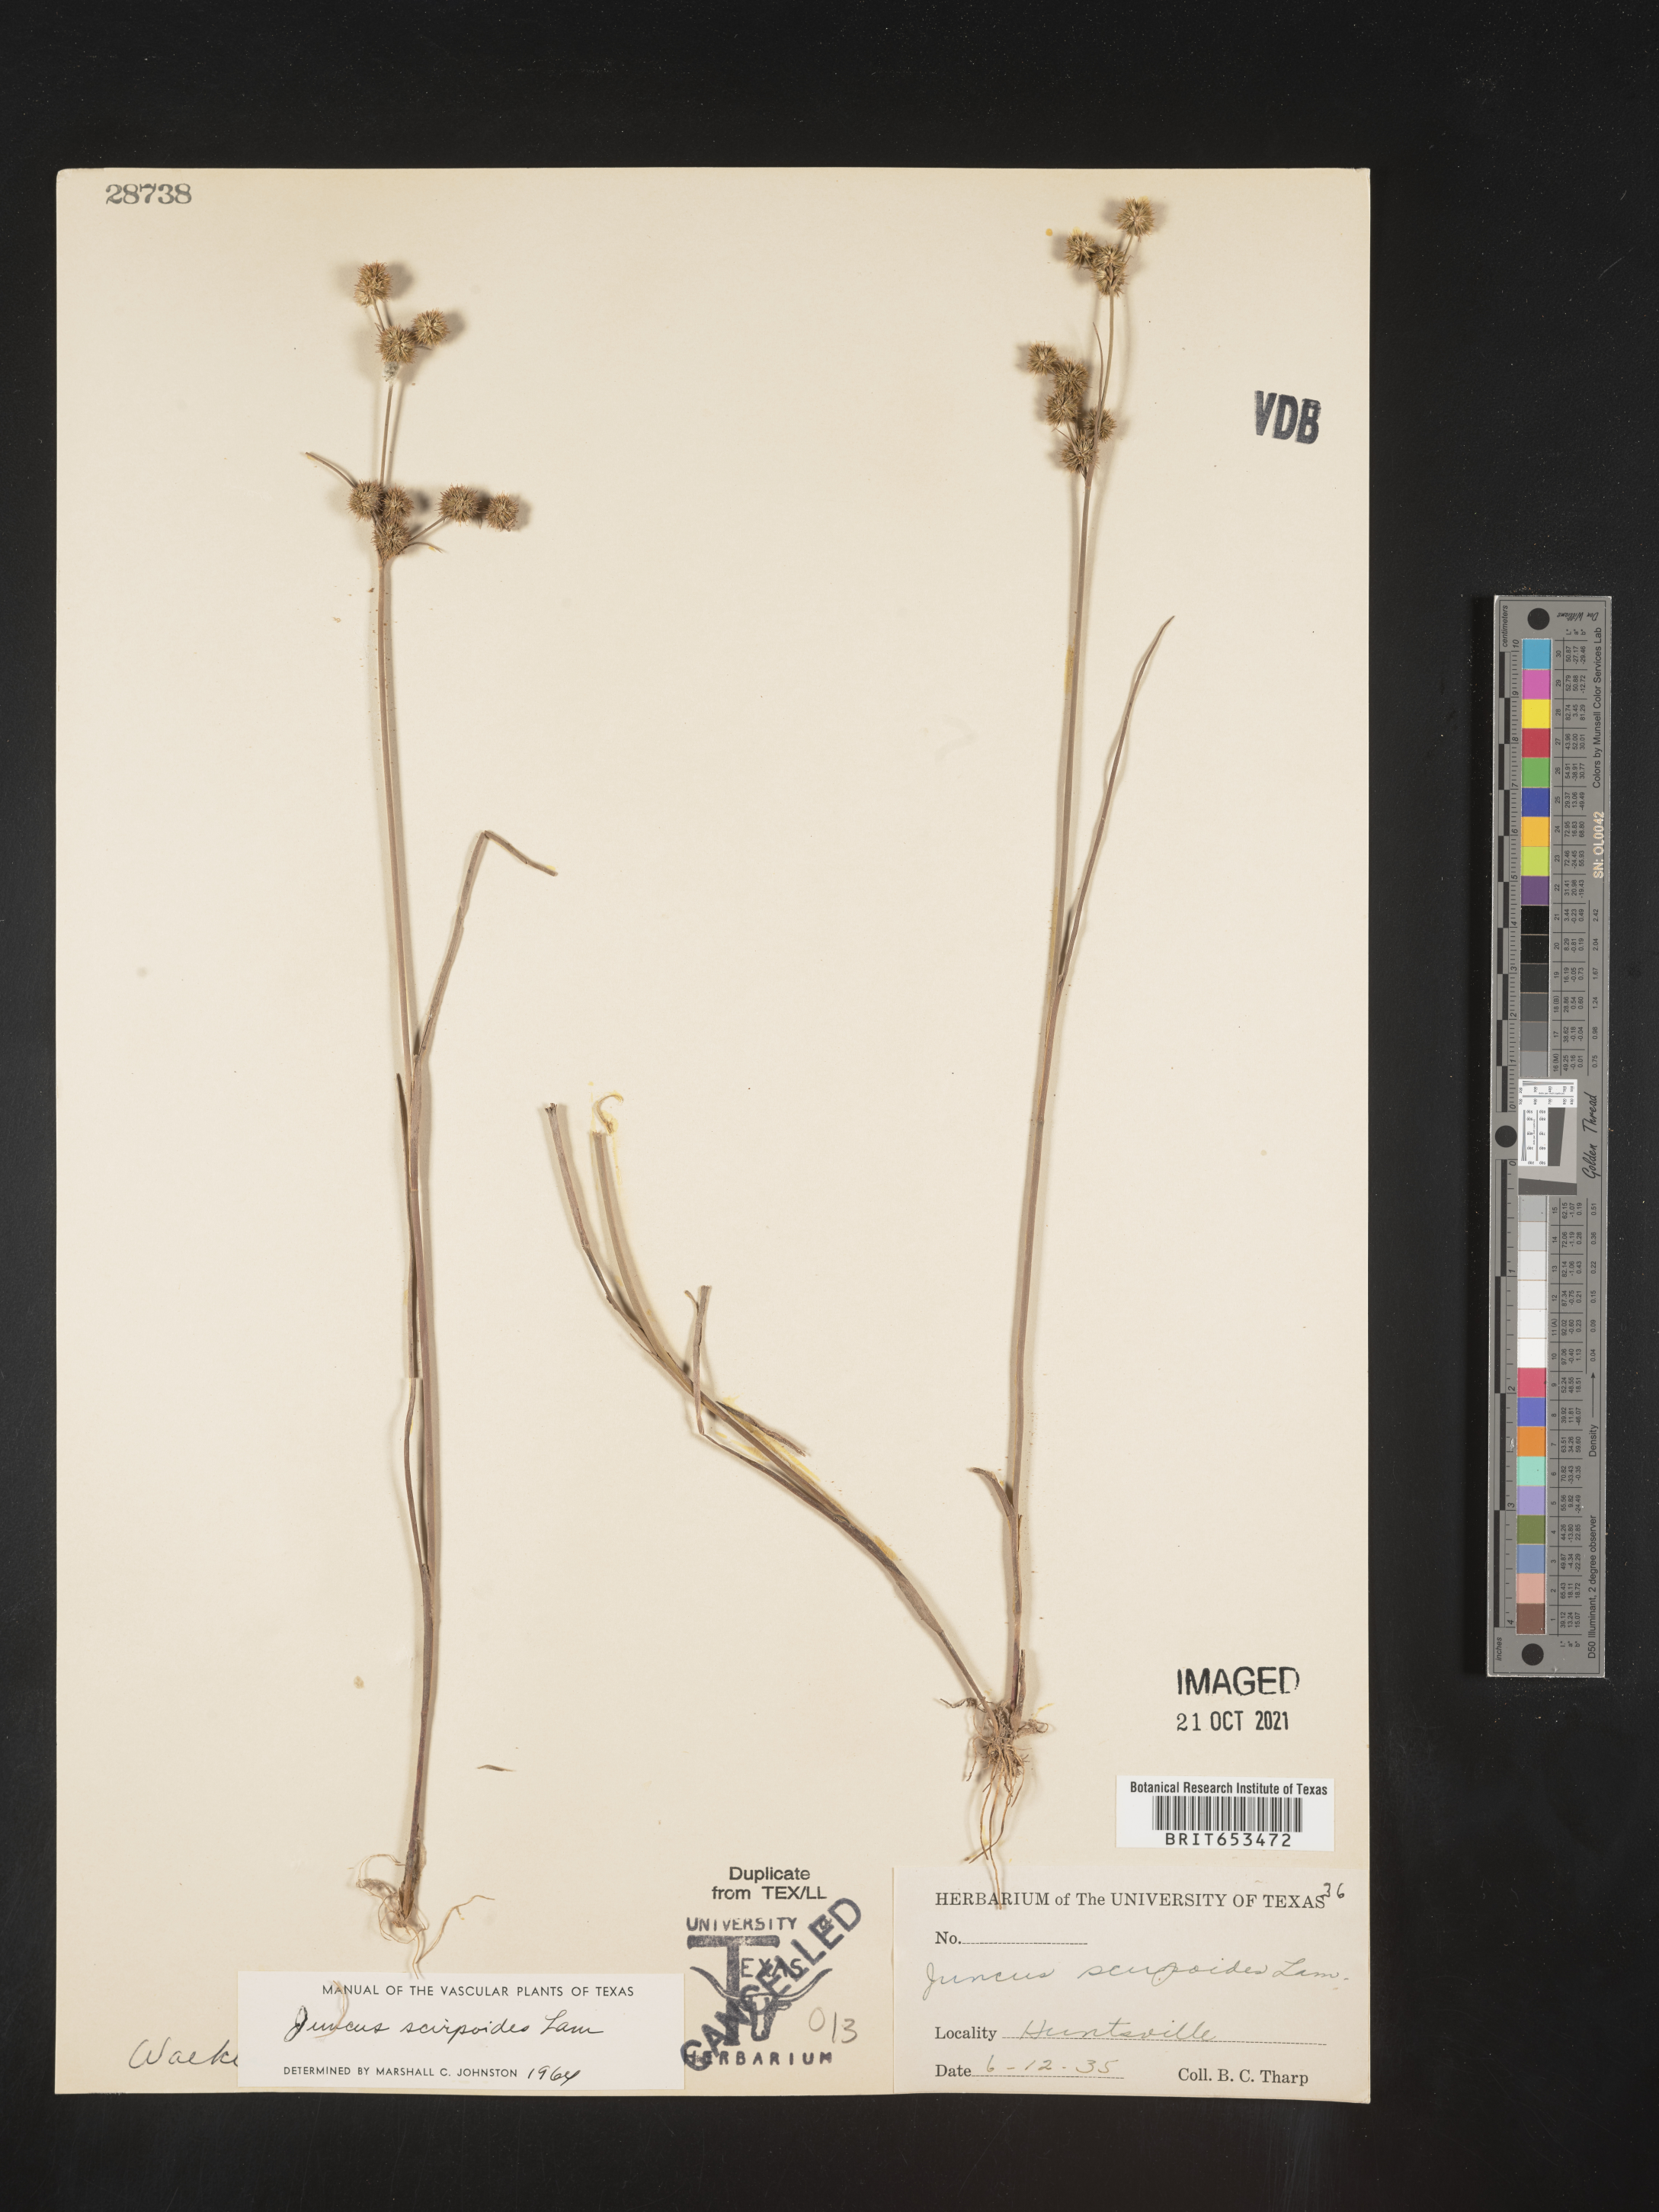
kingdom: Plantae
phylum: Tracheophyta
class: Liliopsida
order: Poales
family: Juncaceae
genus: Juncus
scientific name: Juncus scirpoides
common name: Needlepod rush
